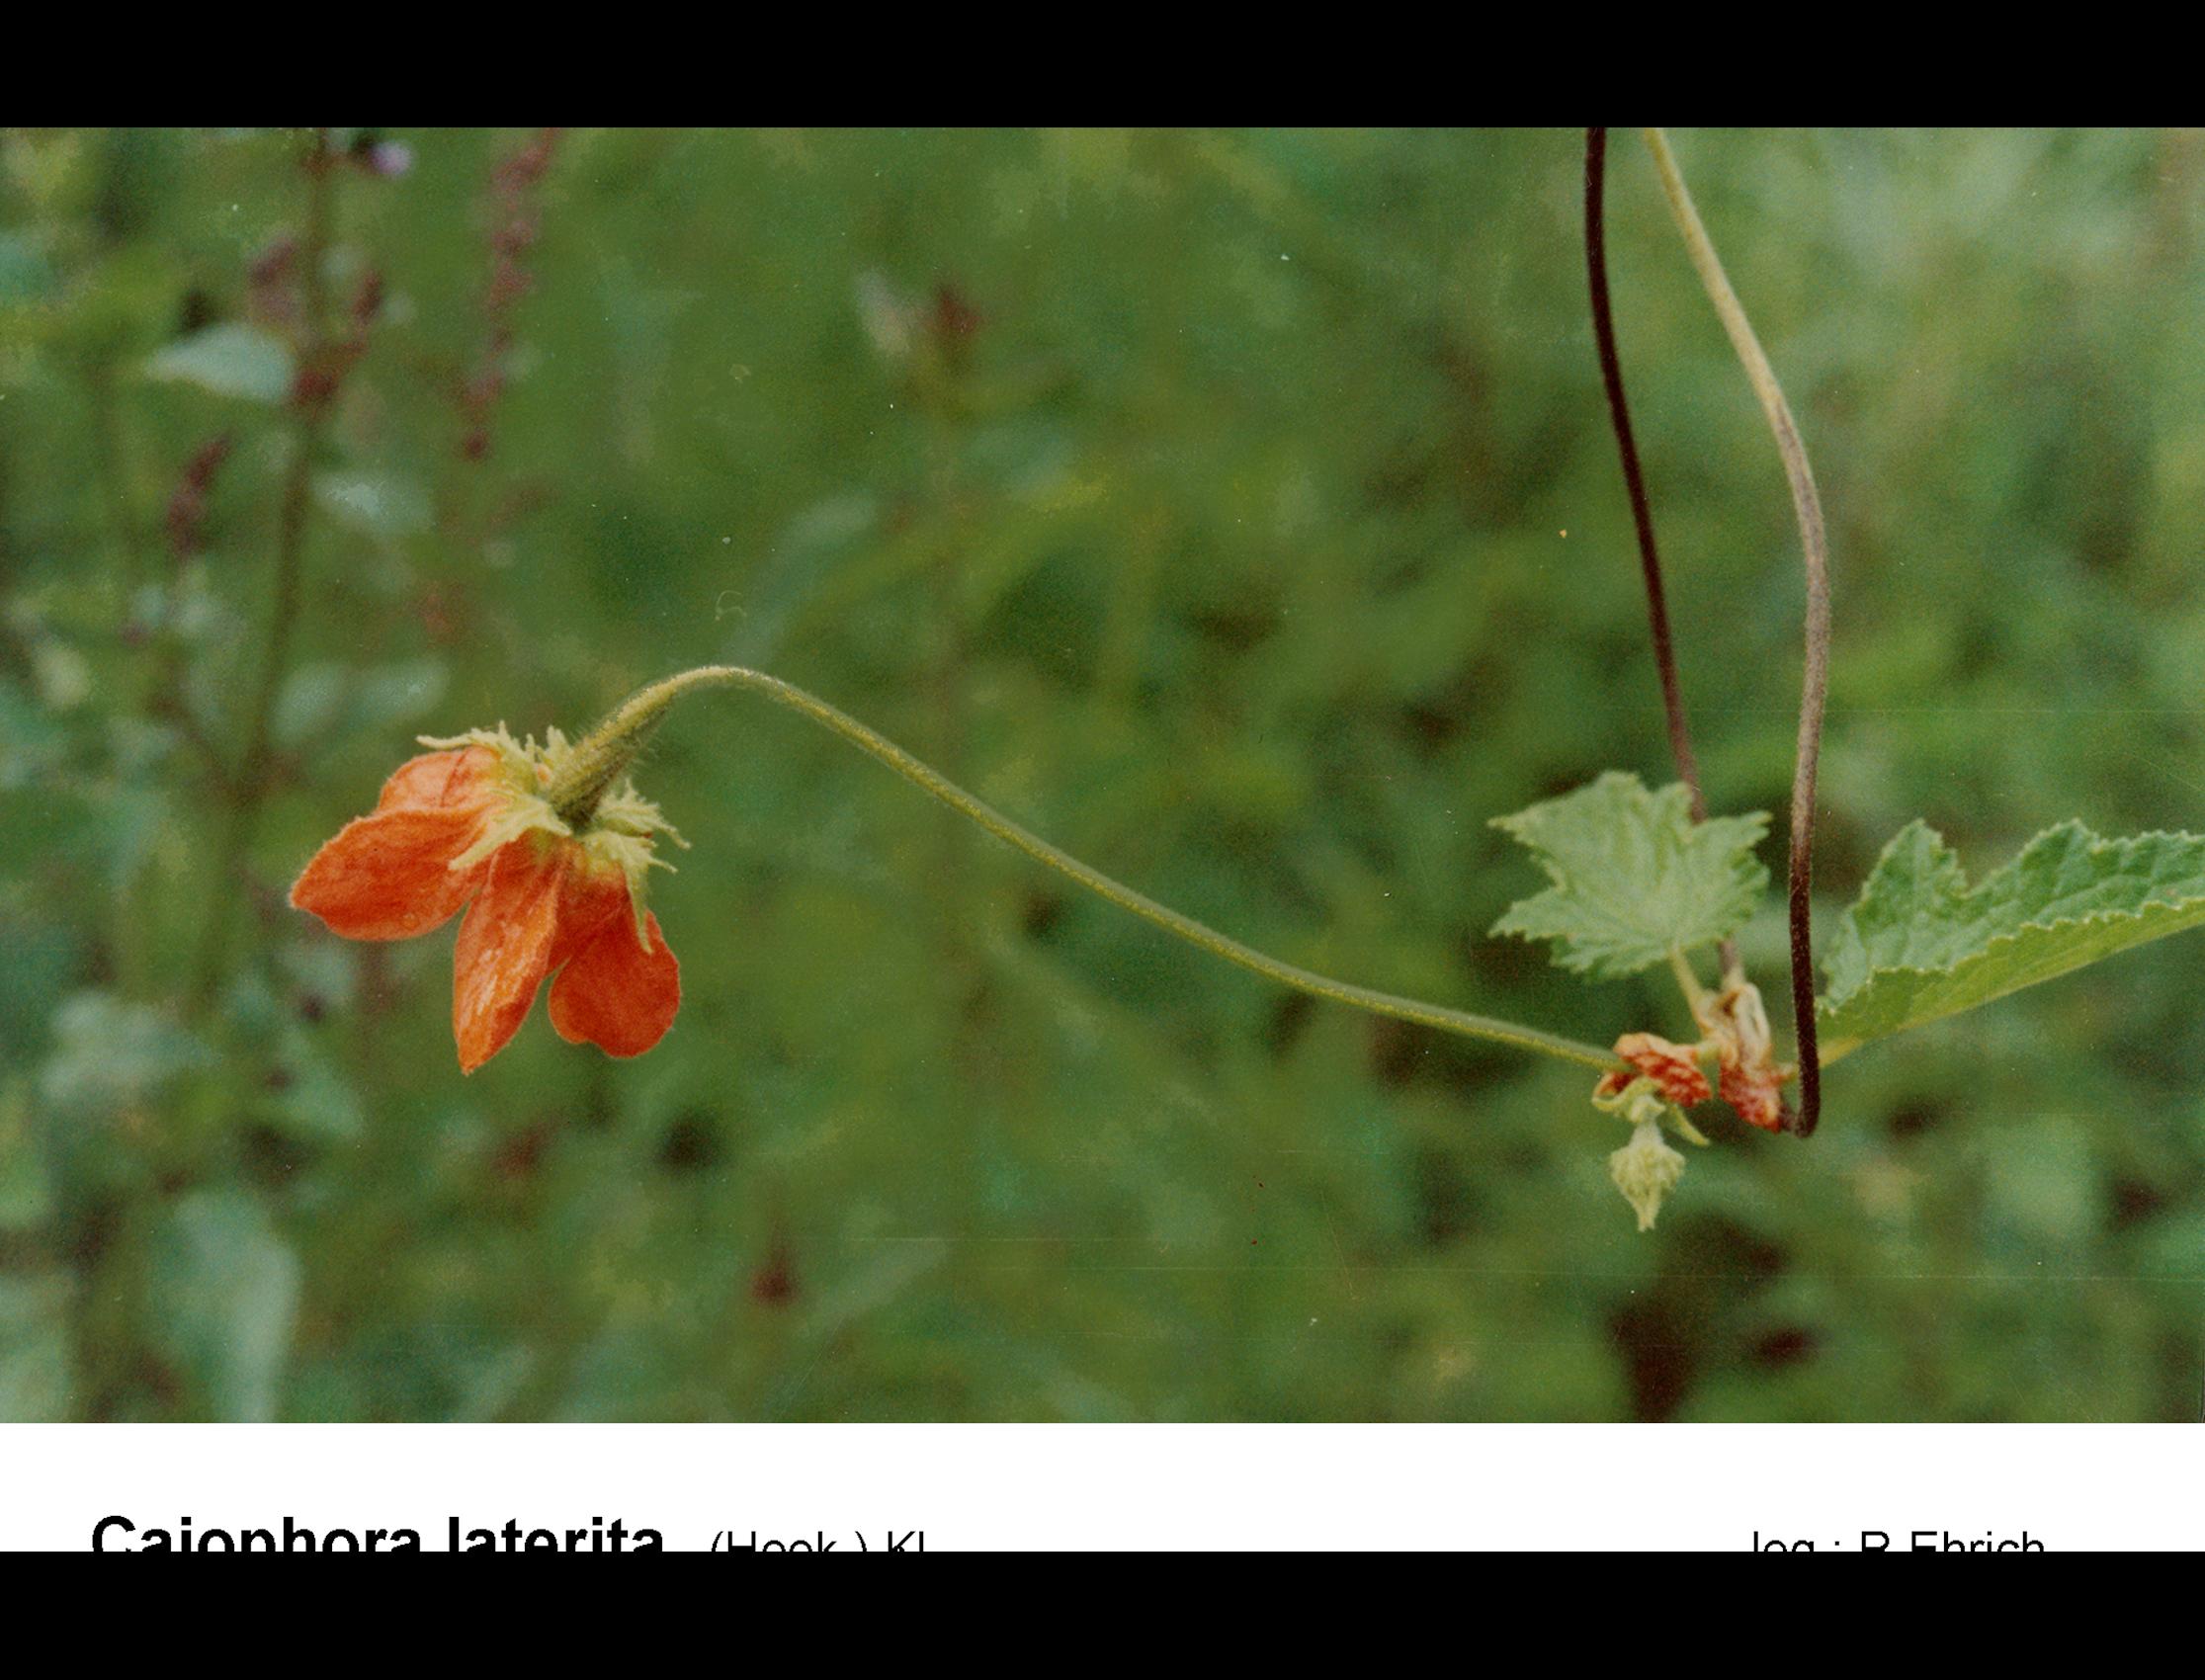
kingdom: Plantae
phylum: Tracheophyta
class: Magnoliopsida
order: Cornales
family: Loasaceae
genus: Caiophora
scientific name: Caiophora lateritia
